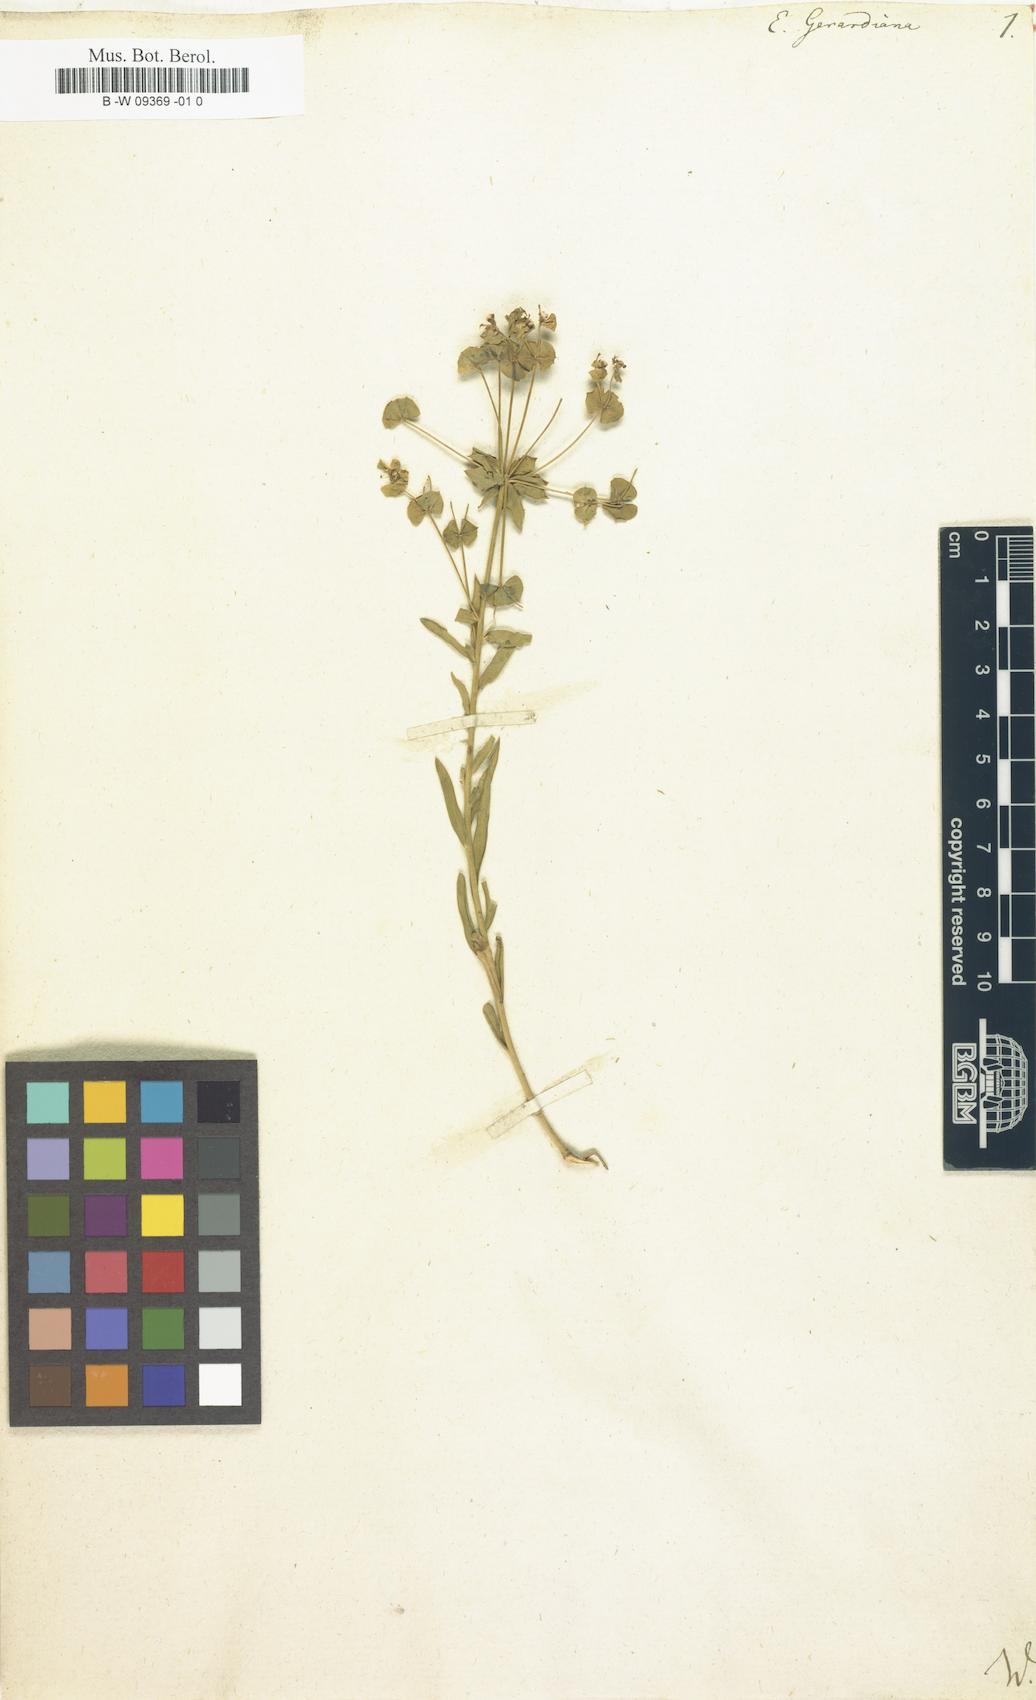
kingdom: Plantae
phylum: Tracheophyta
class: Magnoliopsida
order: Malpighiales
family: Euphorbiaceae
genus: Euphorbia
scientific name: Euphorbia seguieriana
